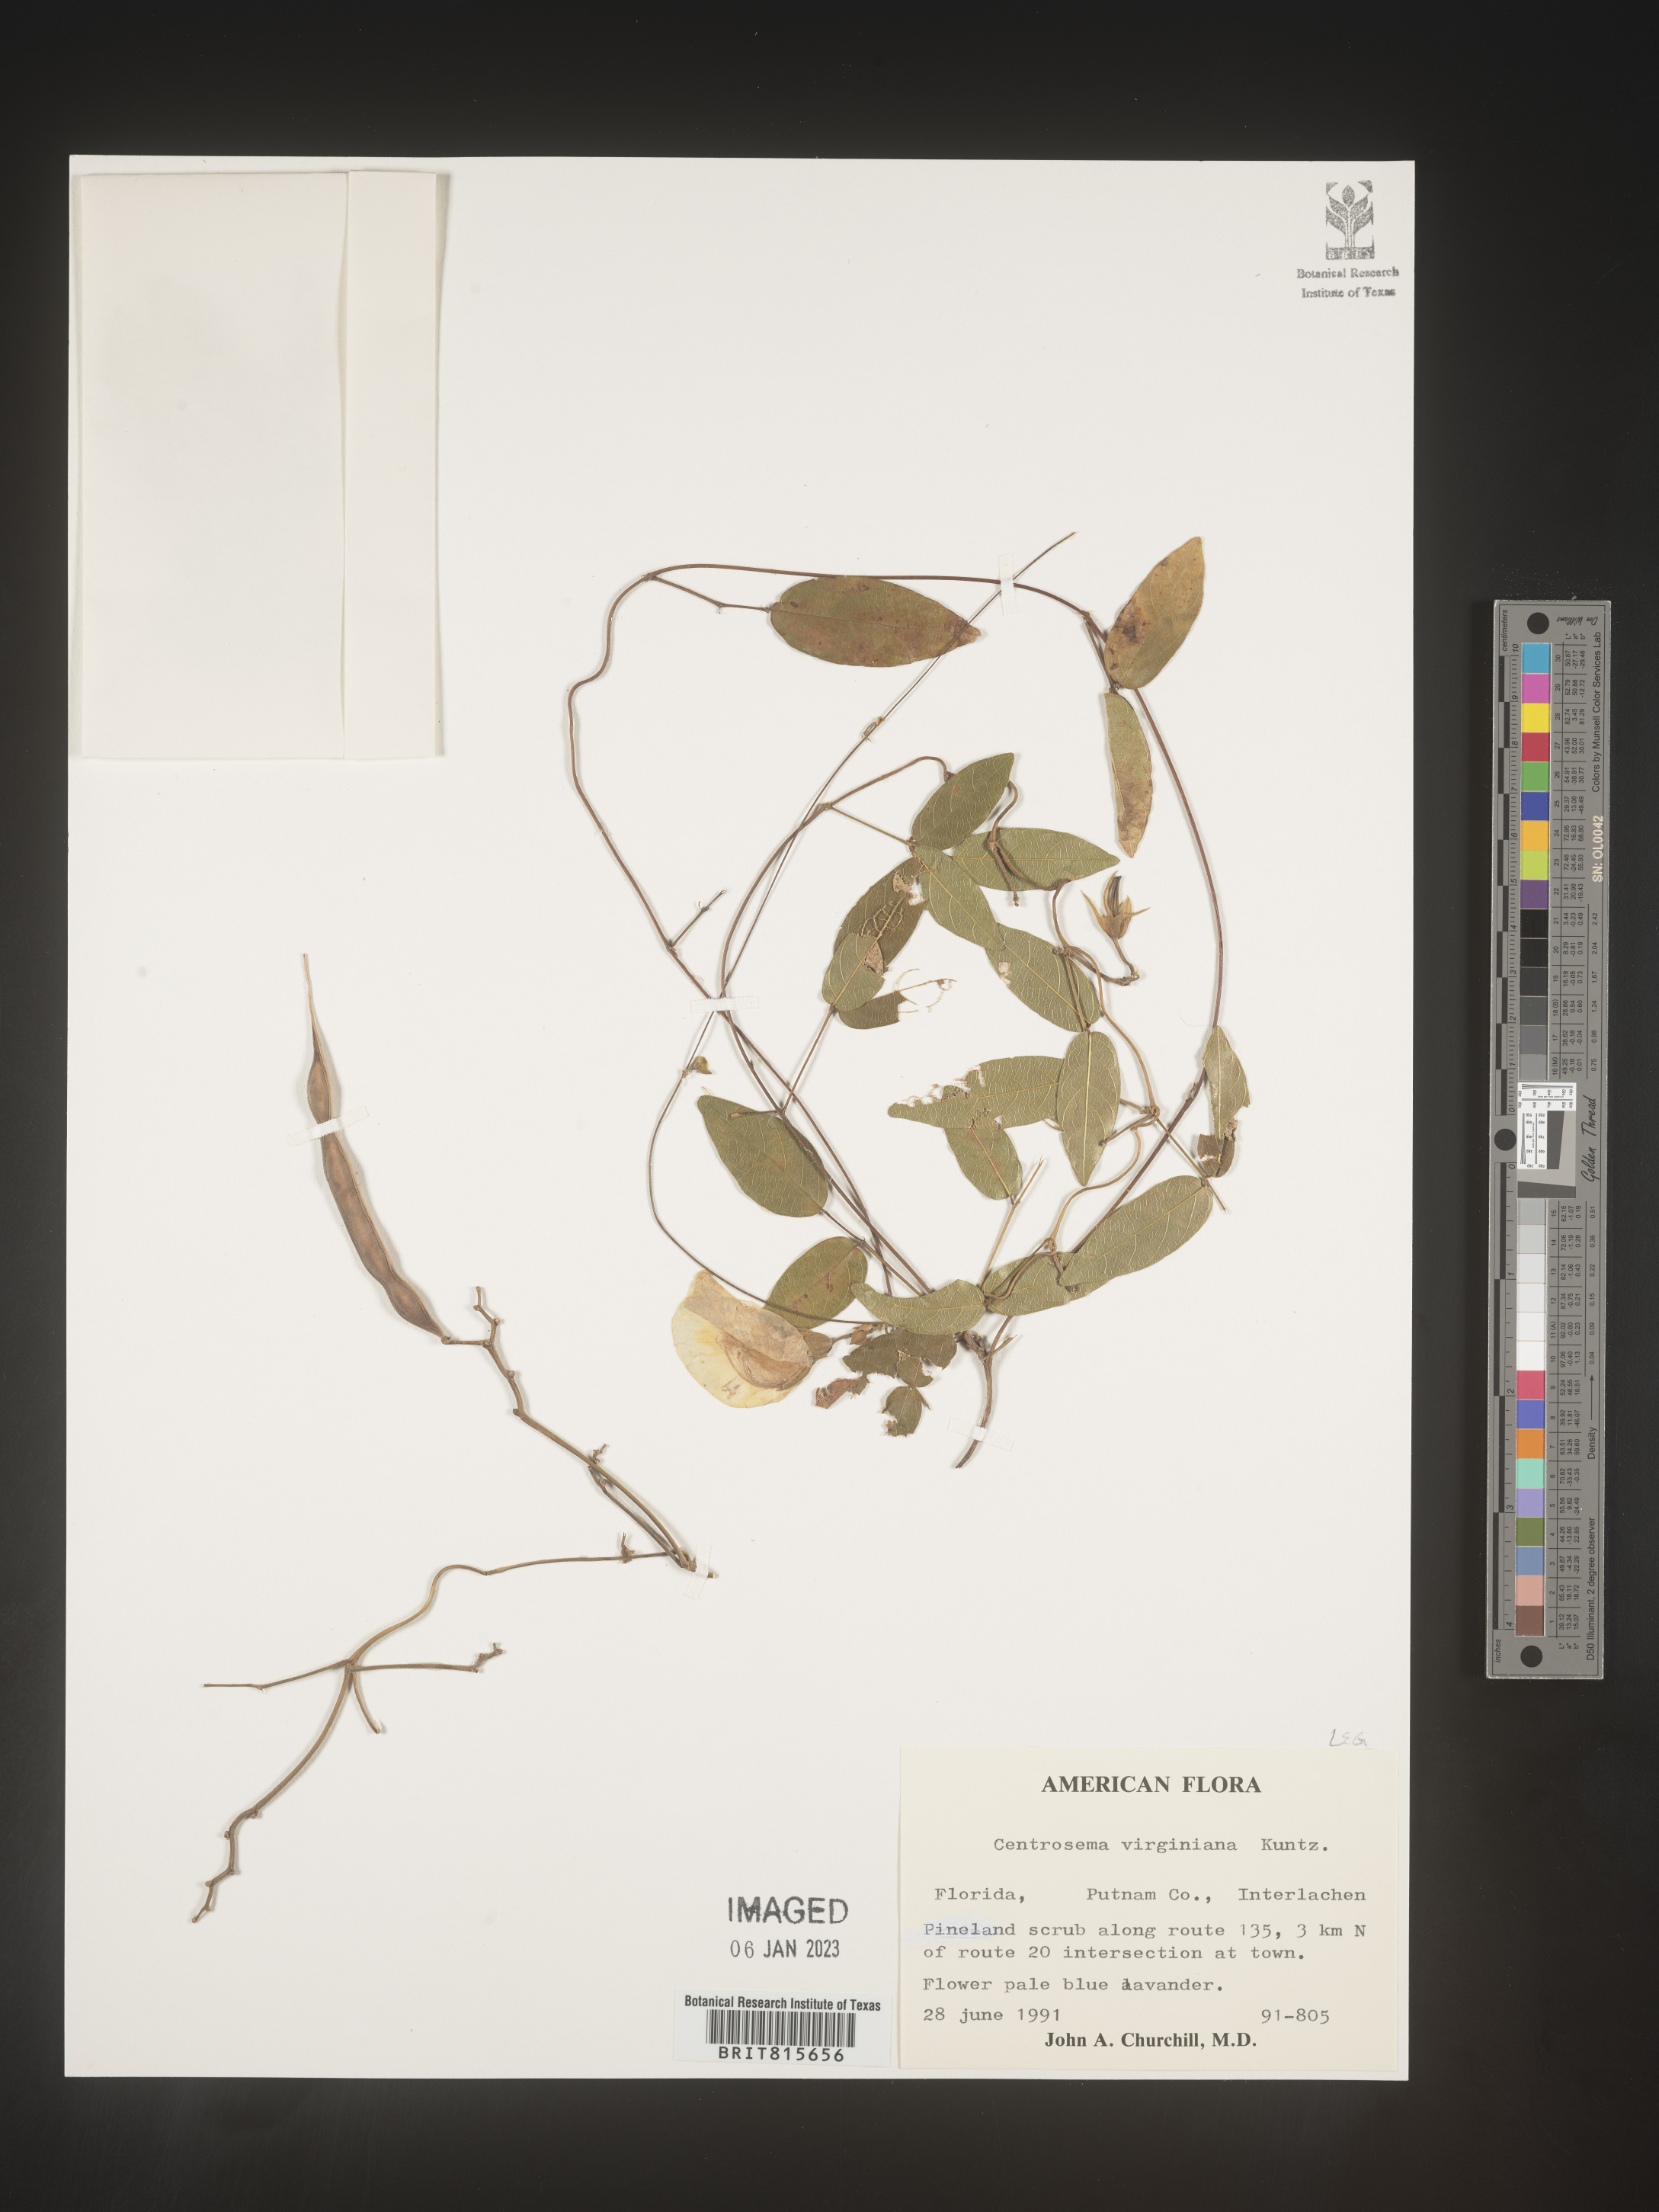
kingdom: Plantae
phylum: Tracheophyta
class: Magnoliopsida
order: Fabales
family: Fabaceae
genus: Centrosema
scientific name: Centrosema virginianum
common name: Butterfly-pea
